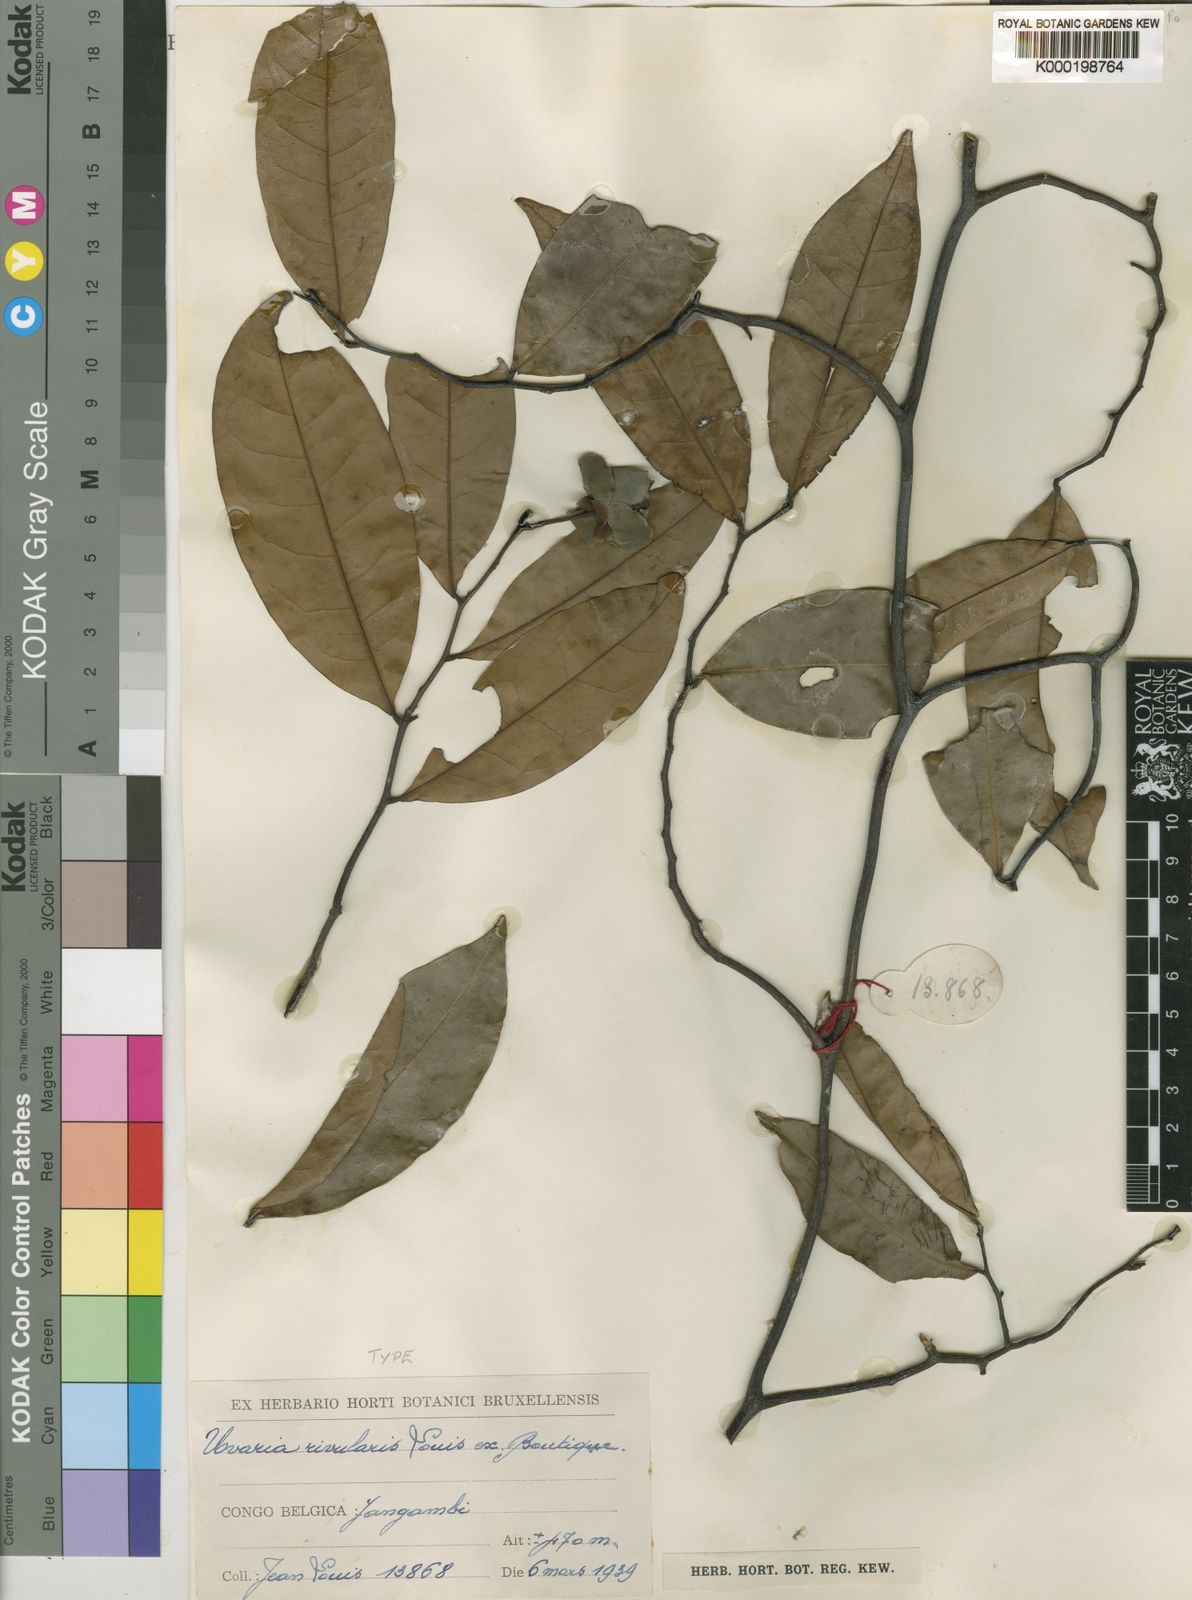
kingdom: Plantae
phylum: Tracheophyta
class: Magnoliopsida
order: Magnoliales
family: Annonaceae
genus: Uvaria
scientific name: Uvaria rivularis
